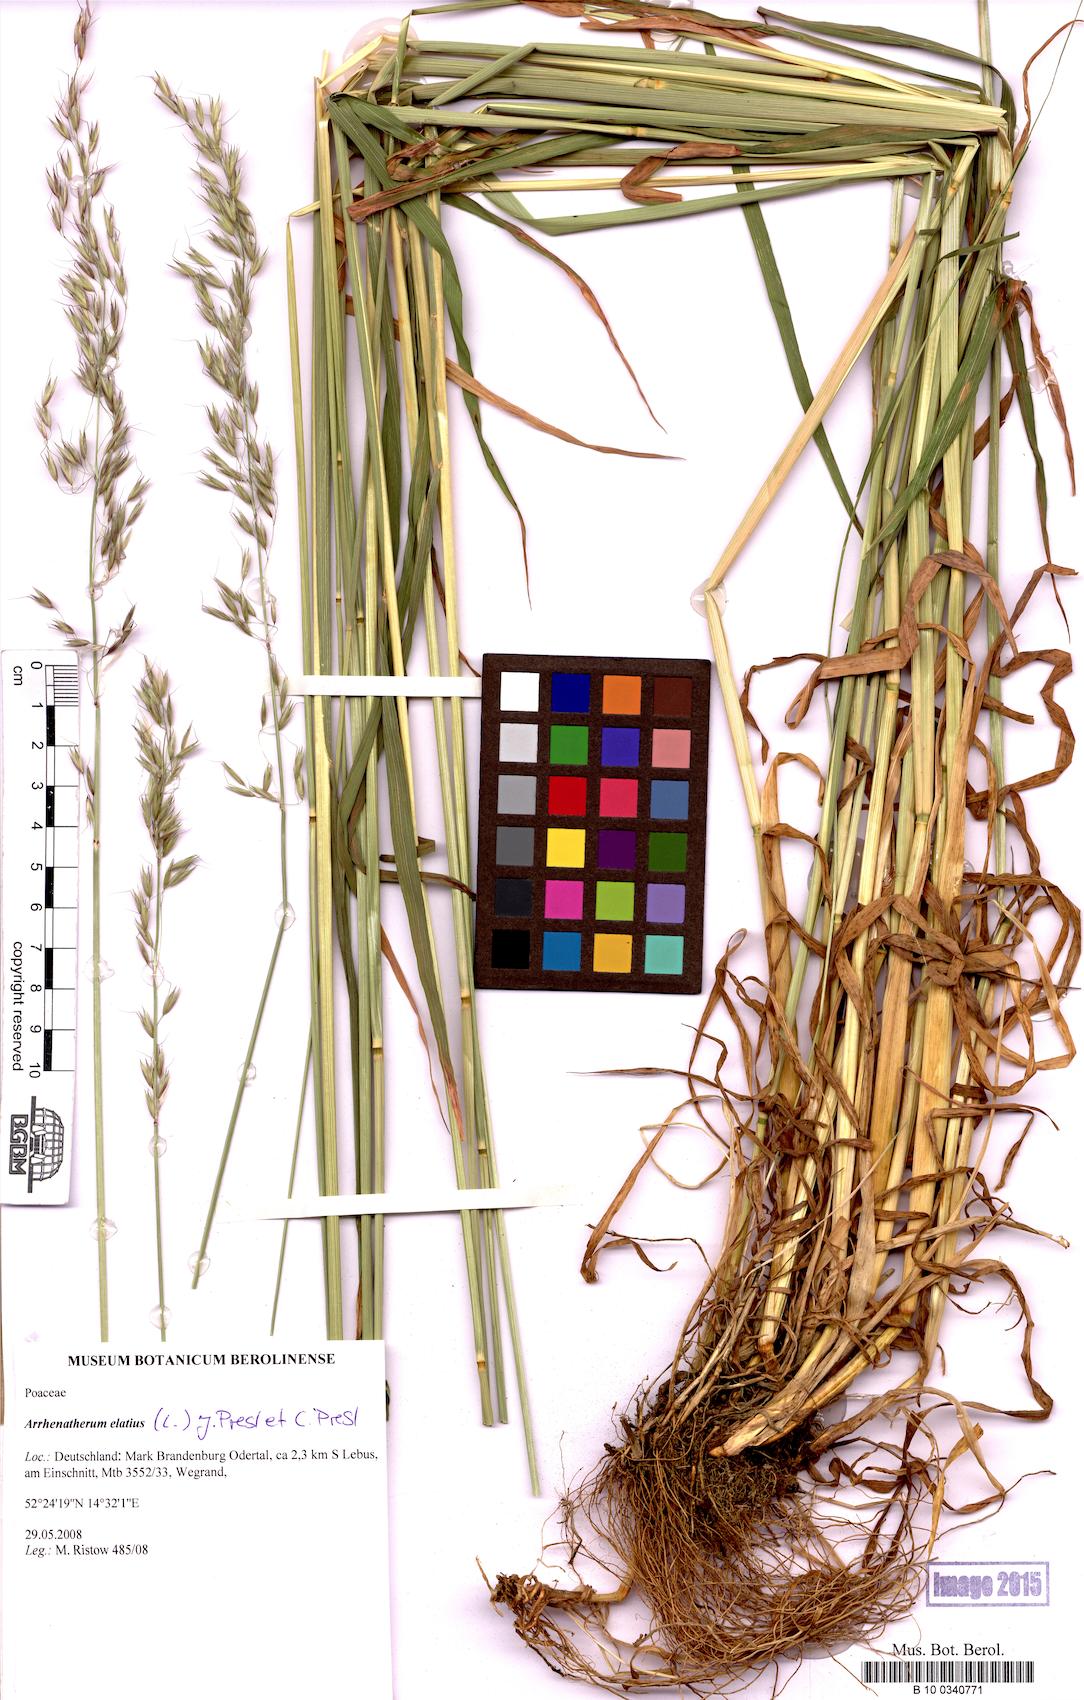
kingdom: Plantae
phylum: Tracheophyta
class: Liliopsida
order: Poales
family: Poaceae
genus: Arrhenatherum
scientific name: Arrhenatherum elatius
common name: Tall oatgrass
